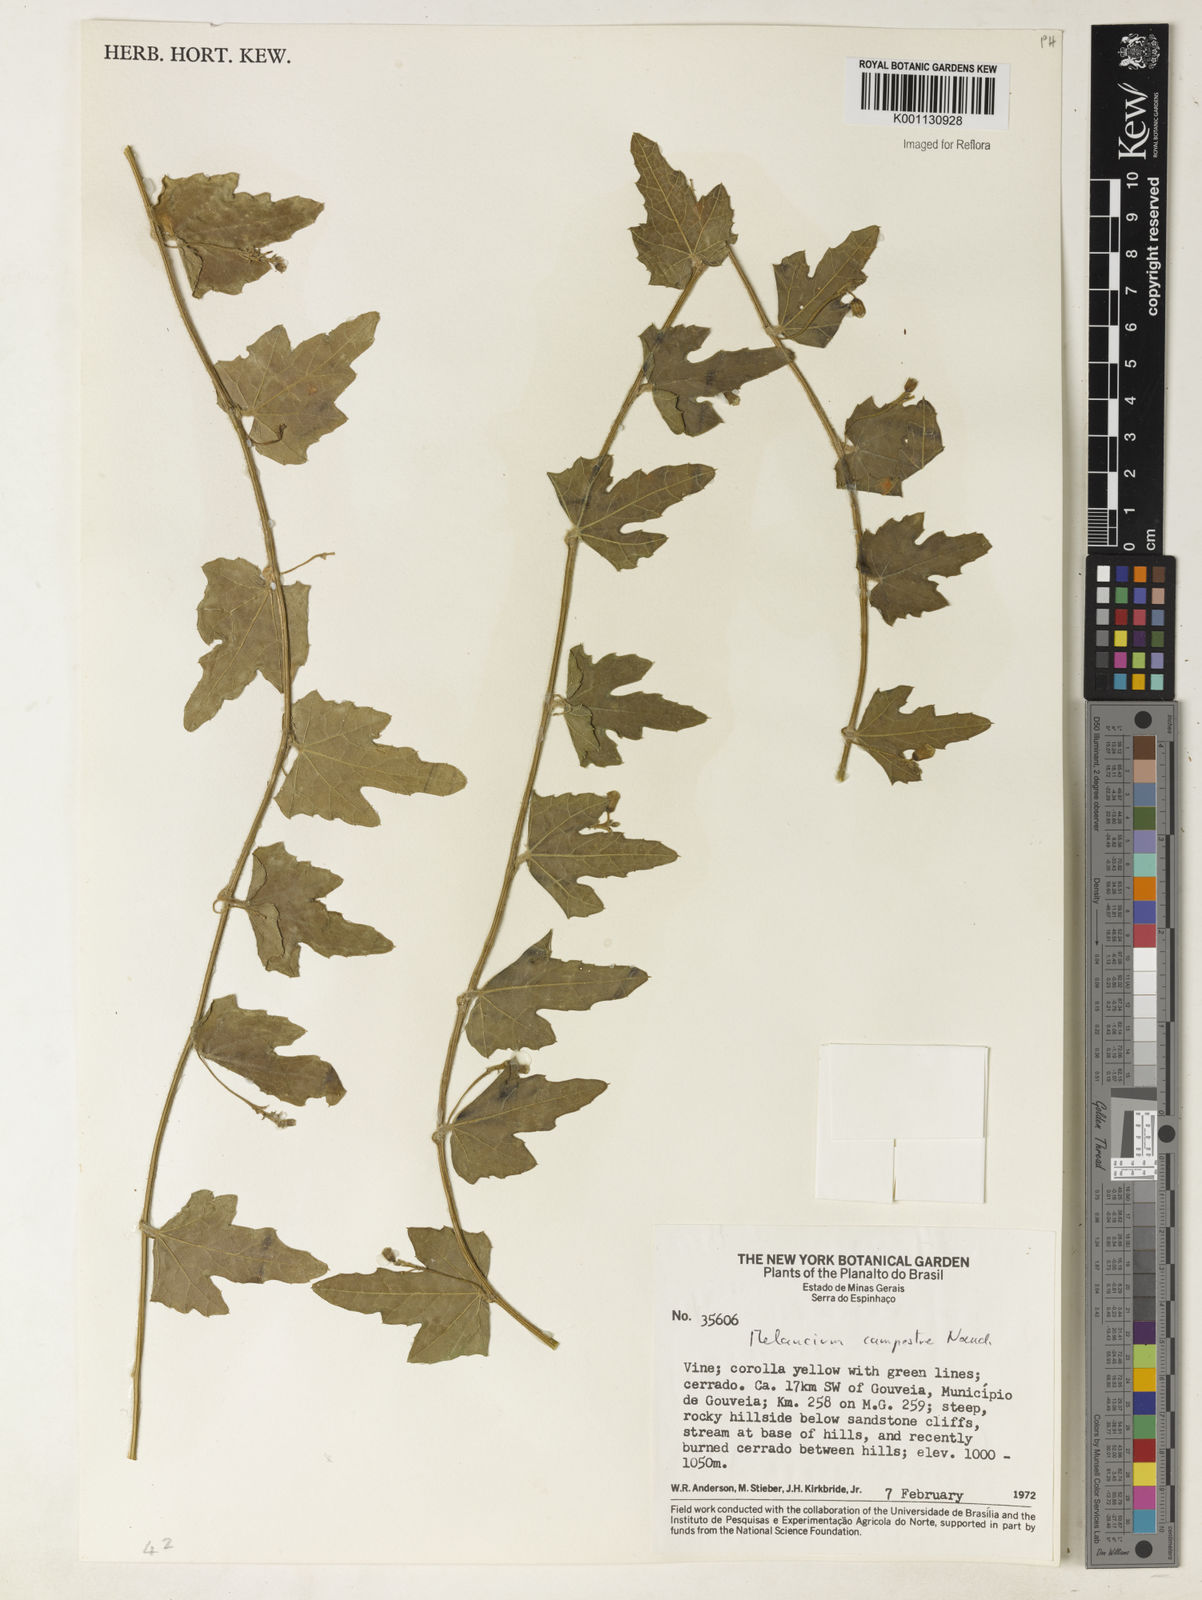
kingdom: Plantae
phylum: Tracheophyta
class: Magnoliopsida
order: Cucurbitales
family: Cucurbitaceae
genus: Melothria
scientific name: Melothria campestris
